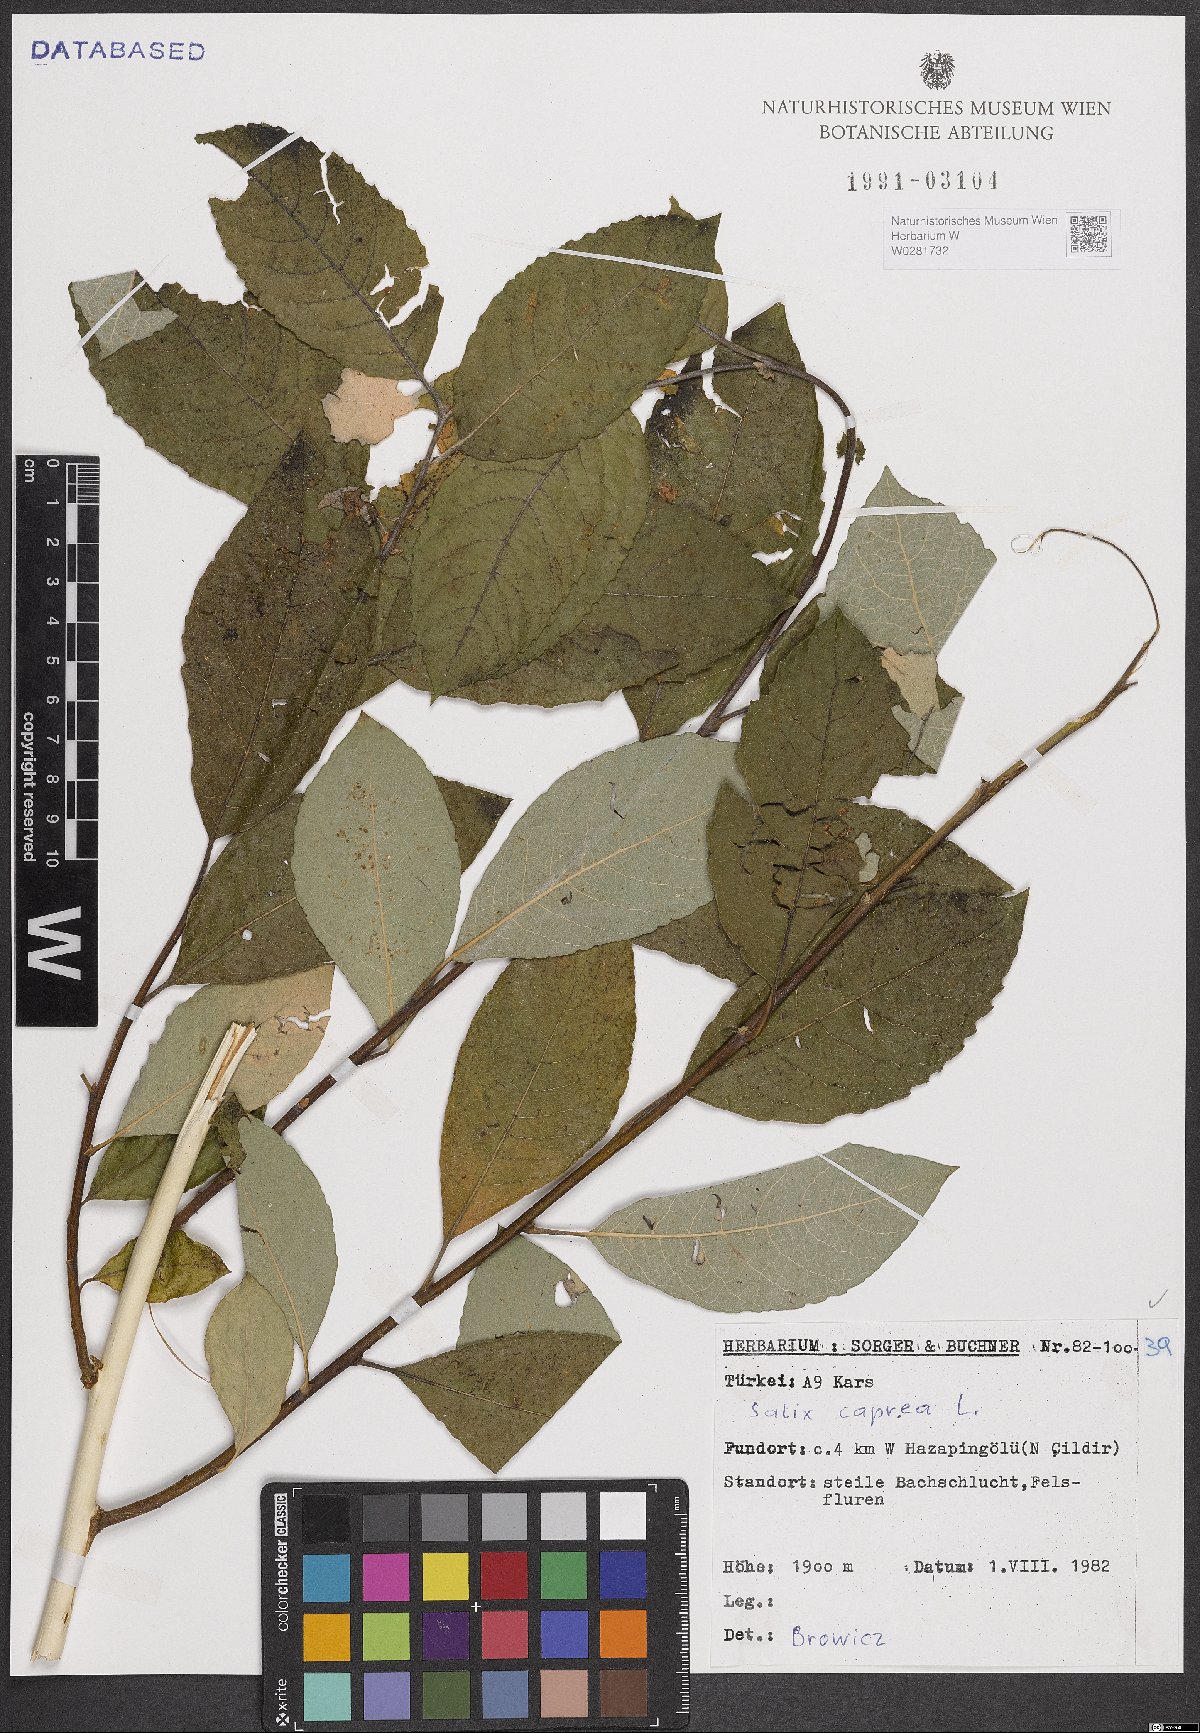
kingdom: Plantae
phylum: Tracheophyta
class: Magnoliopsida
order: Malpighiales
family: Salicaceae
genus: Salix
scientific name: Salix caprea
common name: Goat willow
